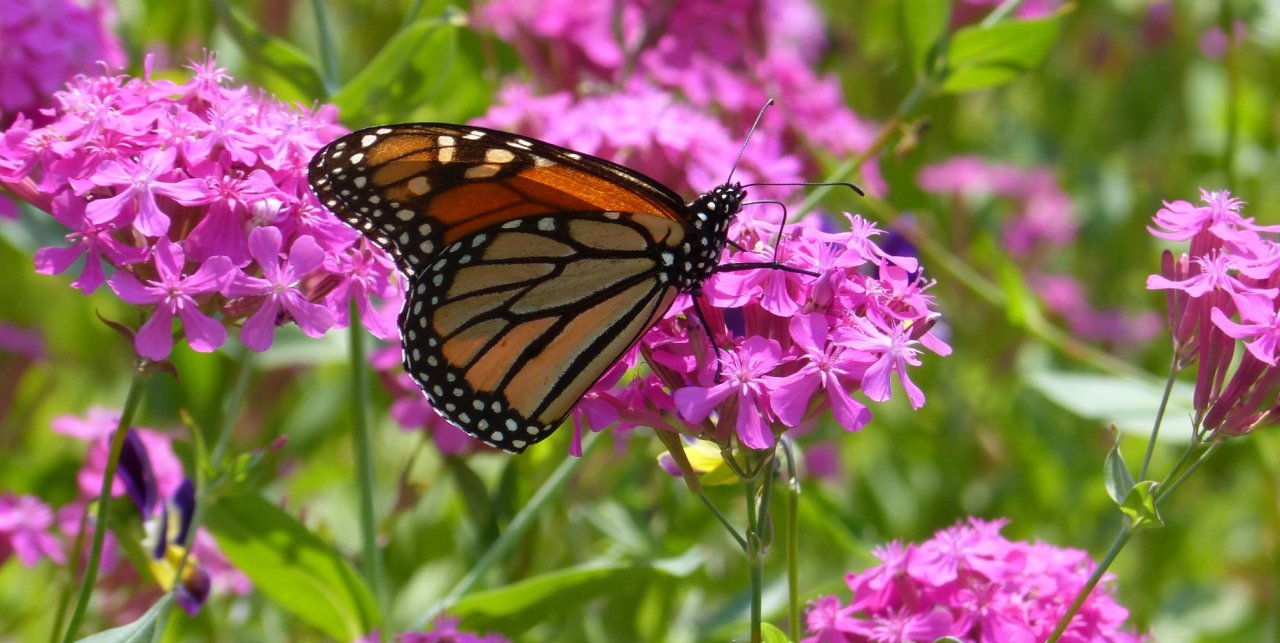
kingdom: Animalia
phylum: Arthropoda
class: Insecta
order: Lepidoptera
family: Nymphalidae
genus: Danaus
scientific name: Danaus plexippus
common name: Monarch
